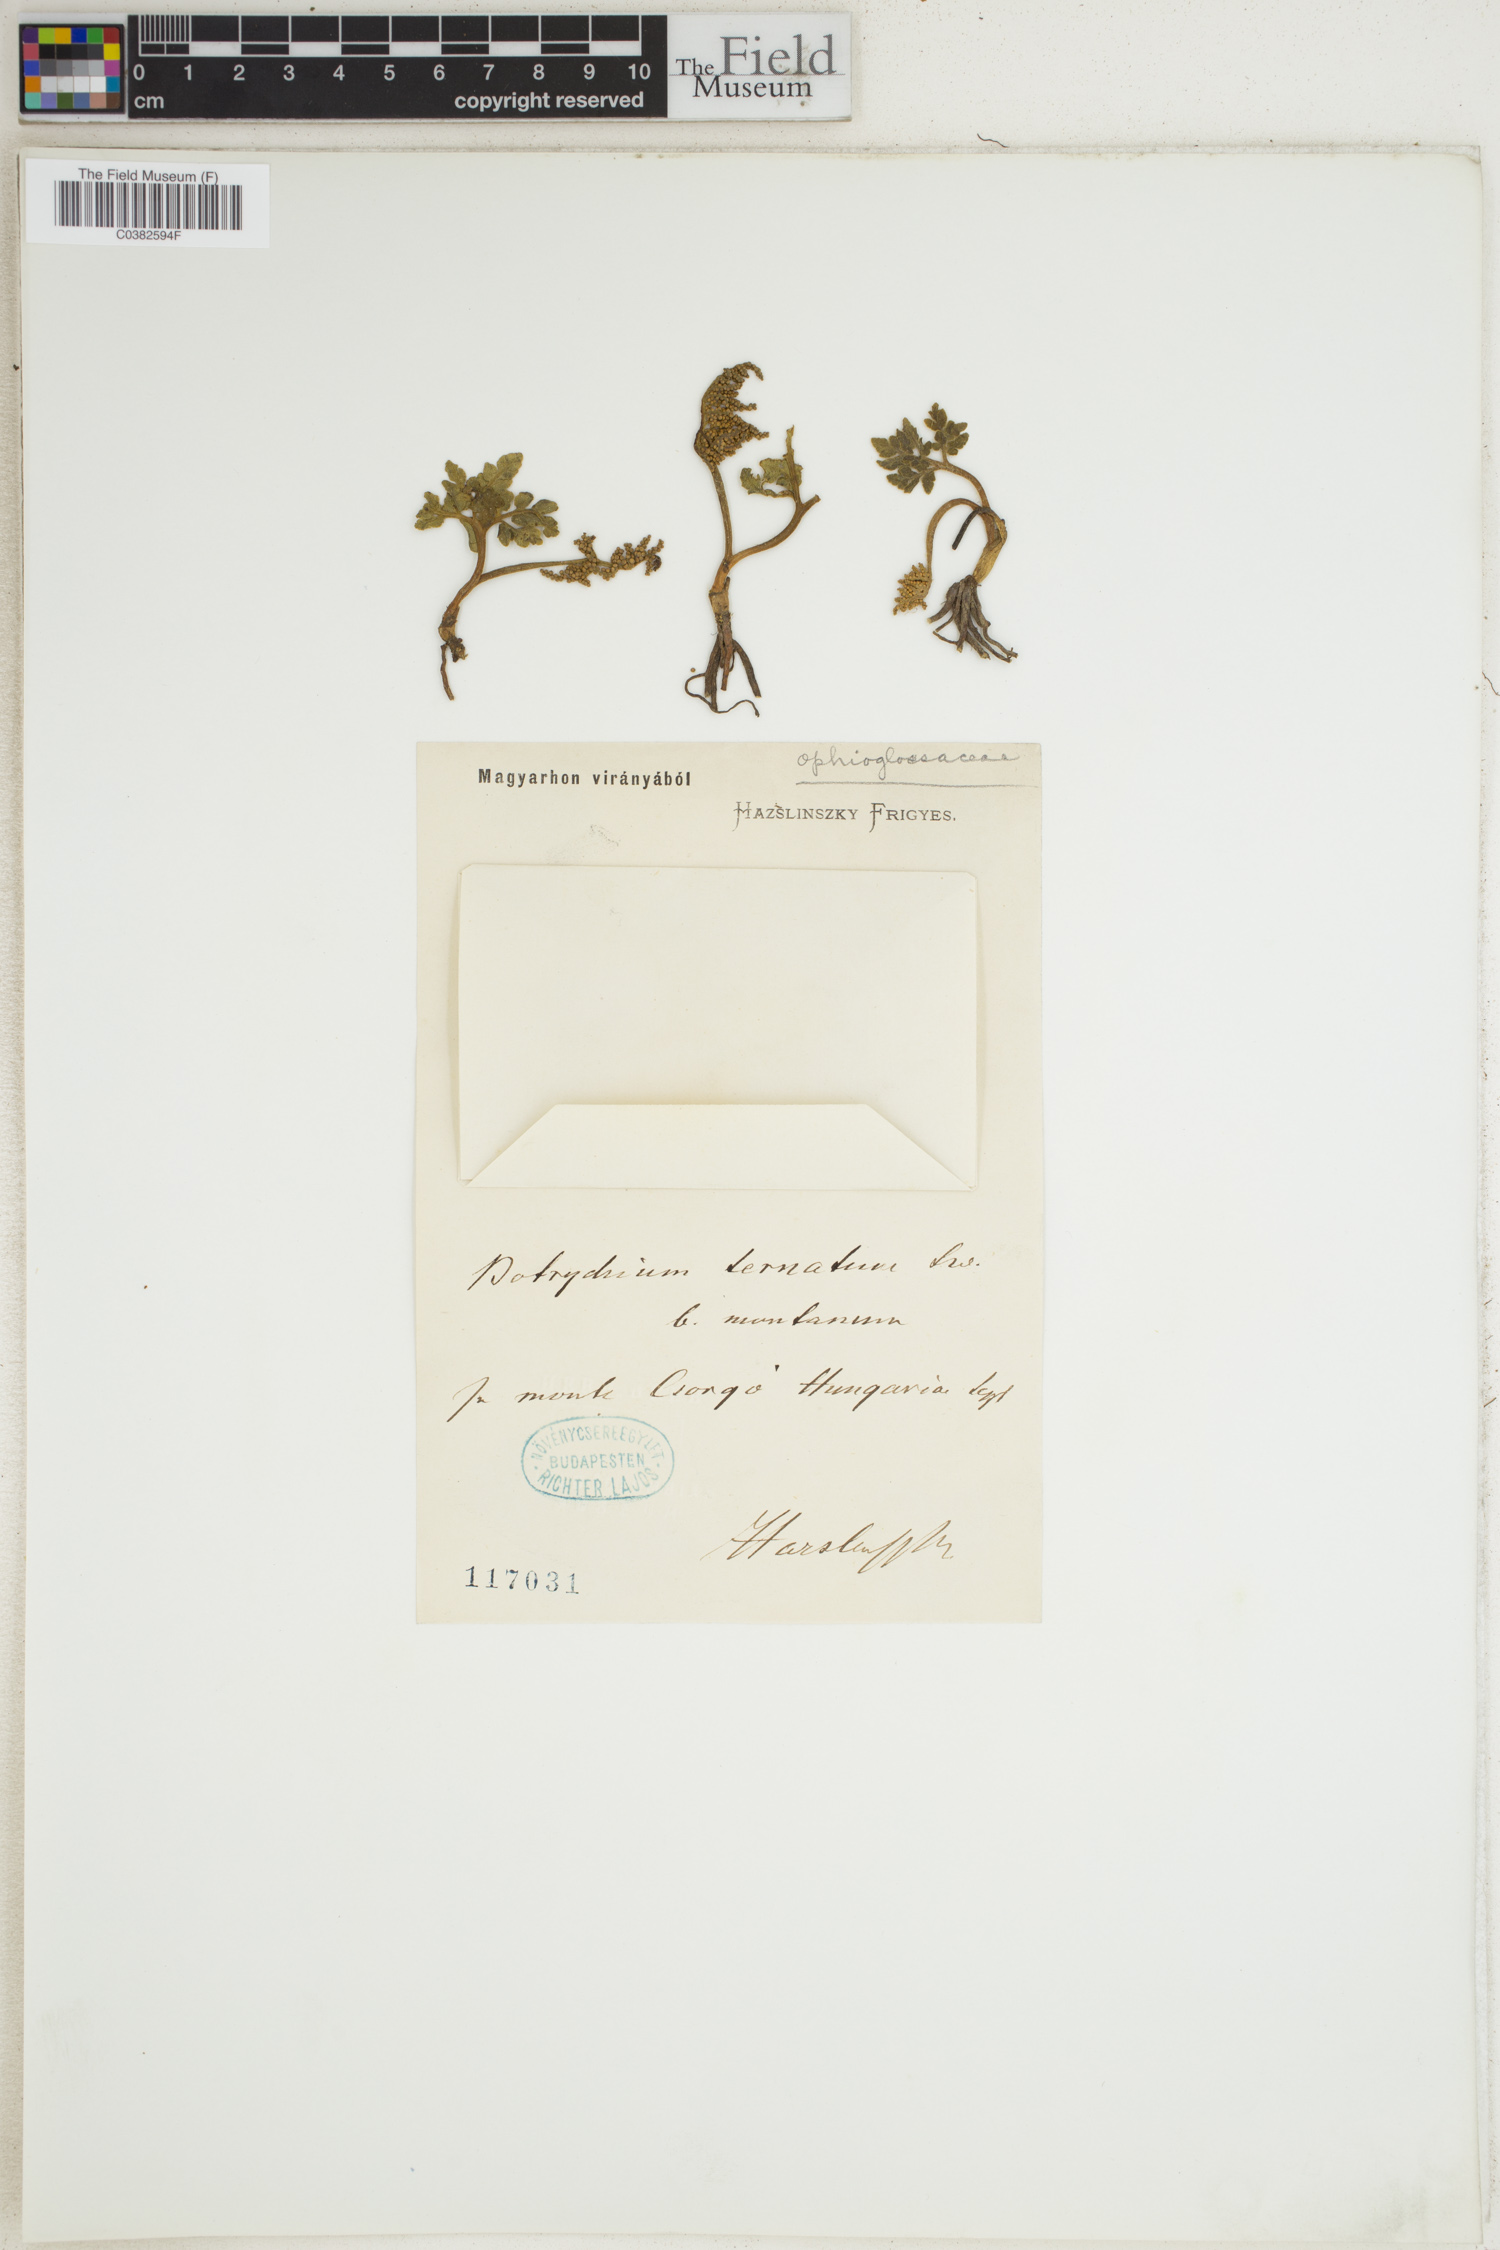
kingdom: Plantae
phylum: Tracheophyta
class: Polypodiopsida
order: Ophioglossales
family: Ophioglossaceae
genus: Sceptridium
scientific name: Sceptridium ternatum
